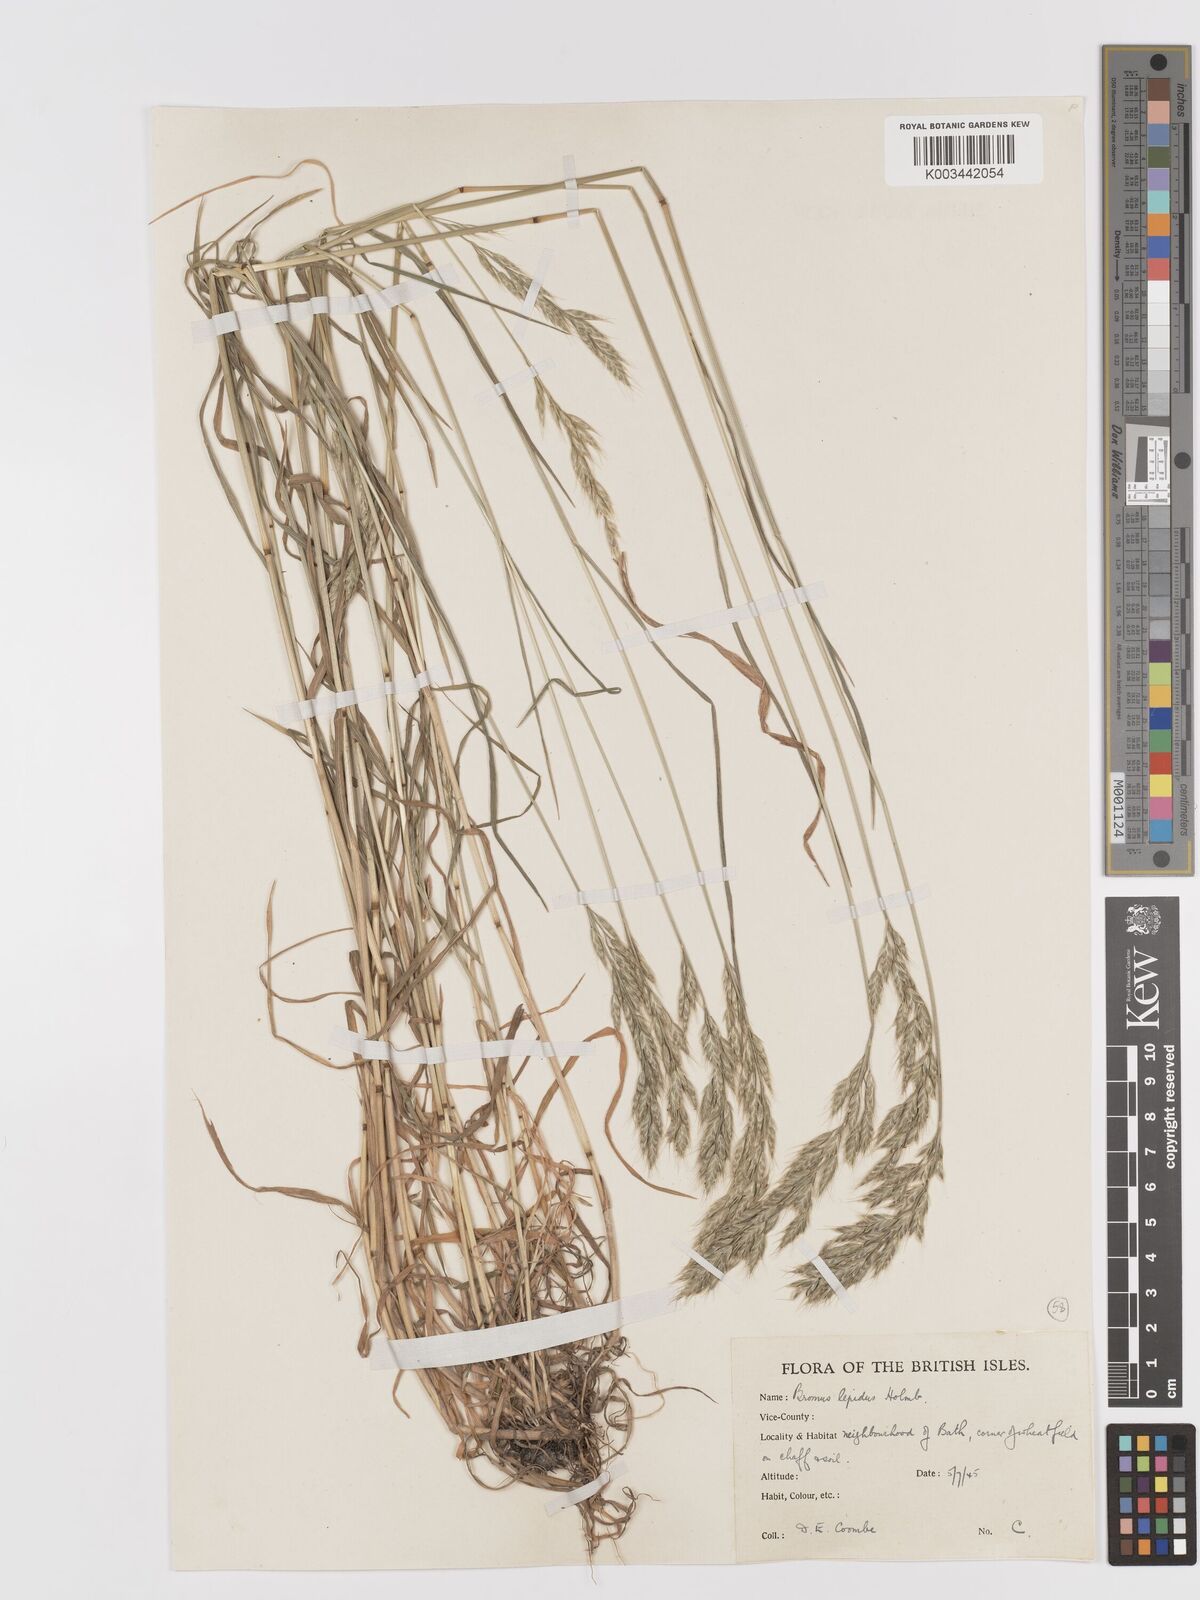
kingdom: Plantae
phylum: Tracheophyta
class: Liliopsida
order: Poales
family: Poaceae
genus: Bromus
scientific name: Bromus lepidus
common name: Slender soft-brome
